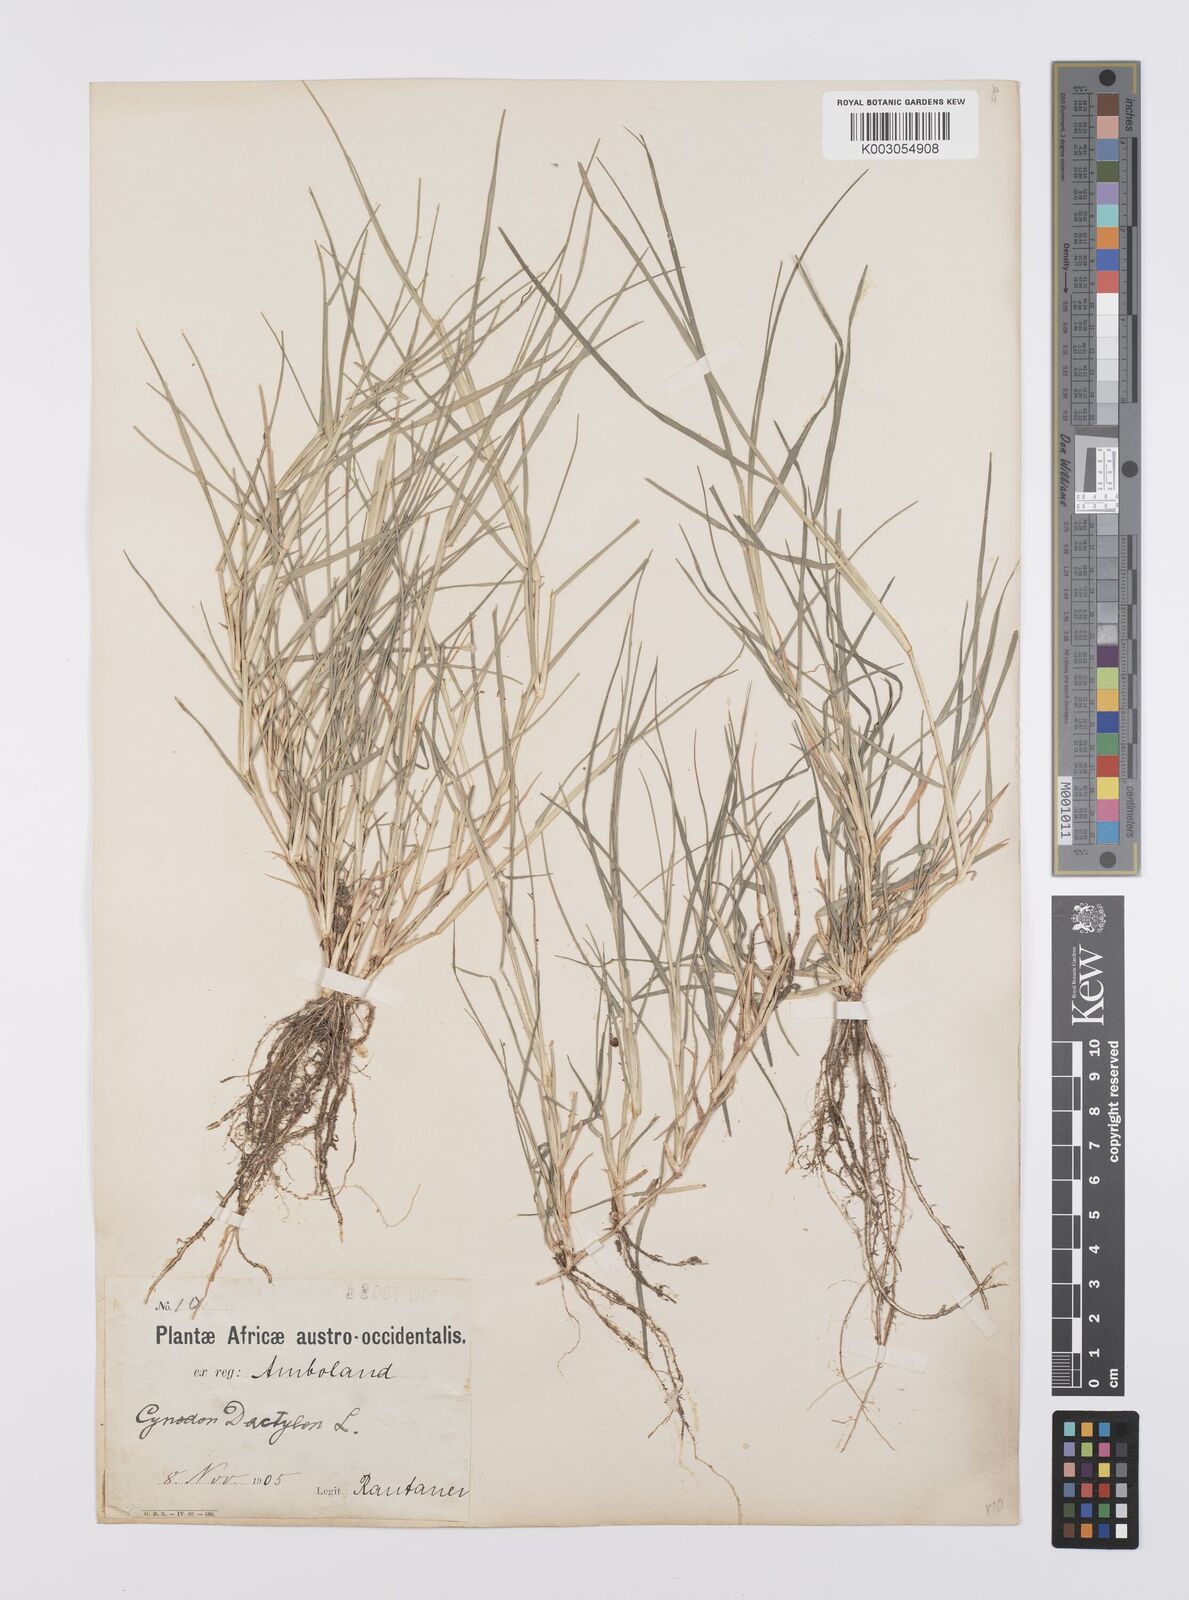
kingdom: Plantae
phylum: Tracheophyta
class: Liliopsida
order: Poales
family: Poaceae
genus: Cynodon
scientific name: Cynodon dactylon
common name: Bermuda grass
